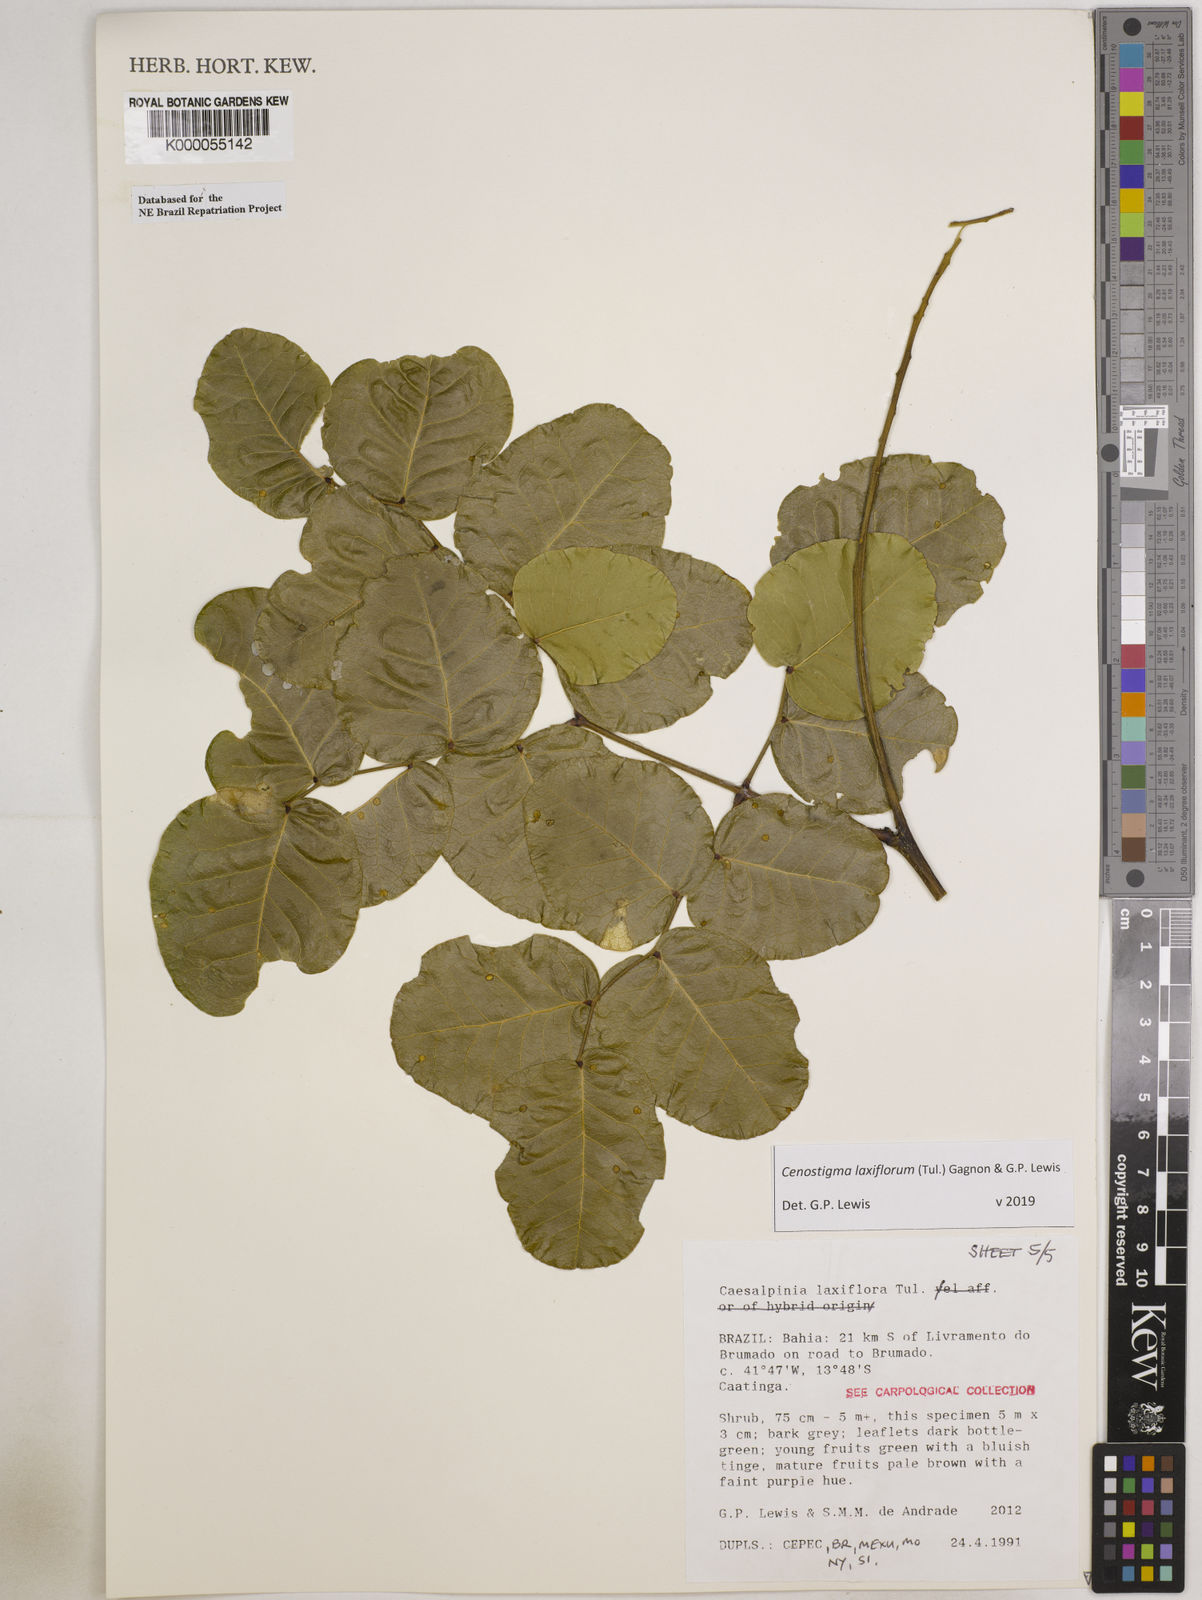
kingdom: Plantae
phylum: Tracheophyta
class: Magnoliopsida
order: Fabales
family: Fabaceae
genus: Cenostigma
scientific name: Cenostigma laxiflorum
